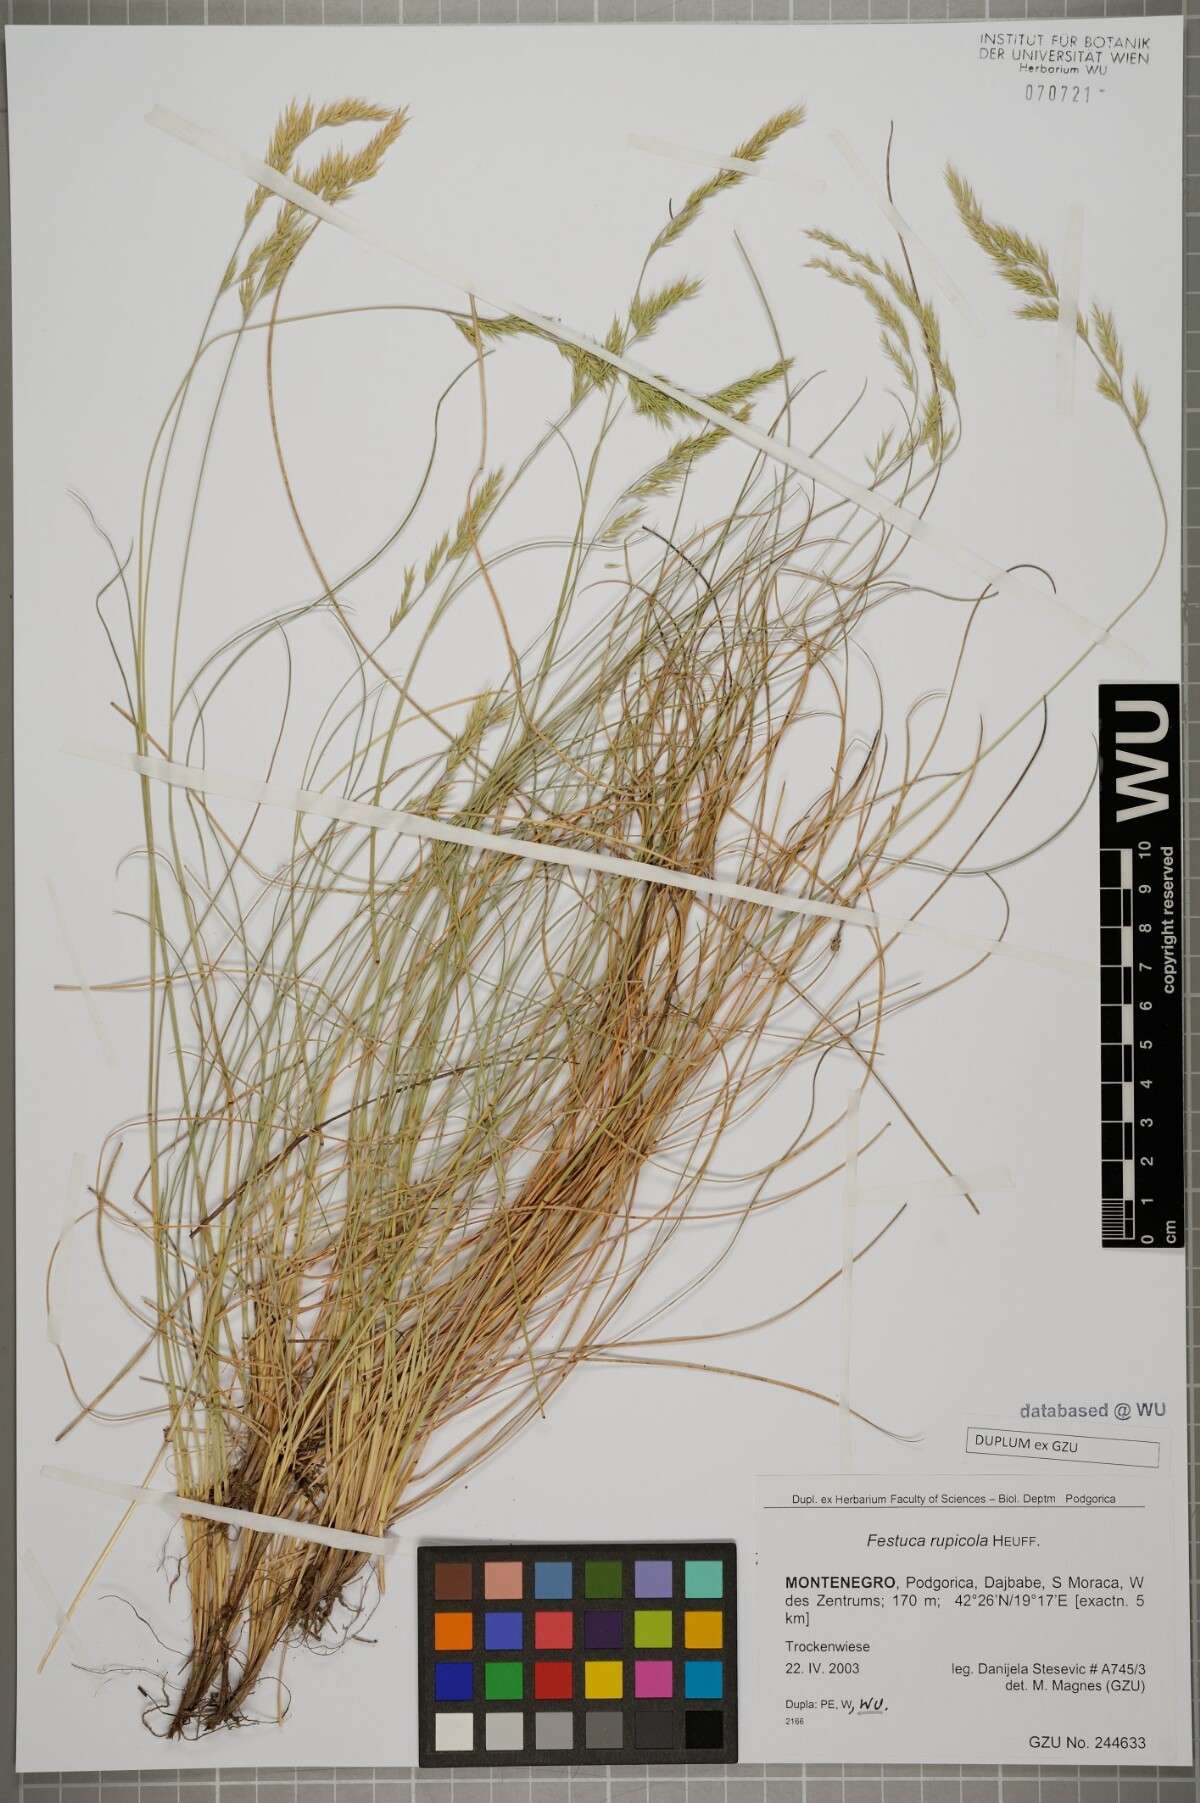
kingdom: Plantae
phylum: Tracheophyta
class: Liliopsida
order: Poales
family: Poaceae
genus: Festuca
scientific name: Festuca rupicola
